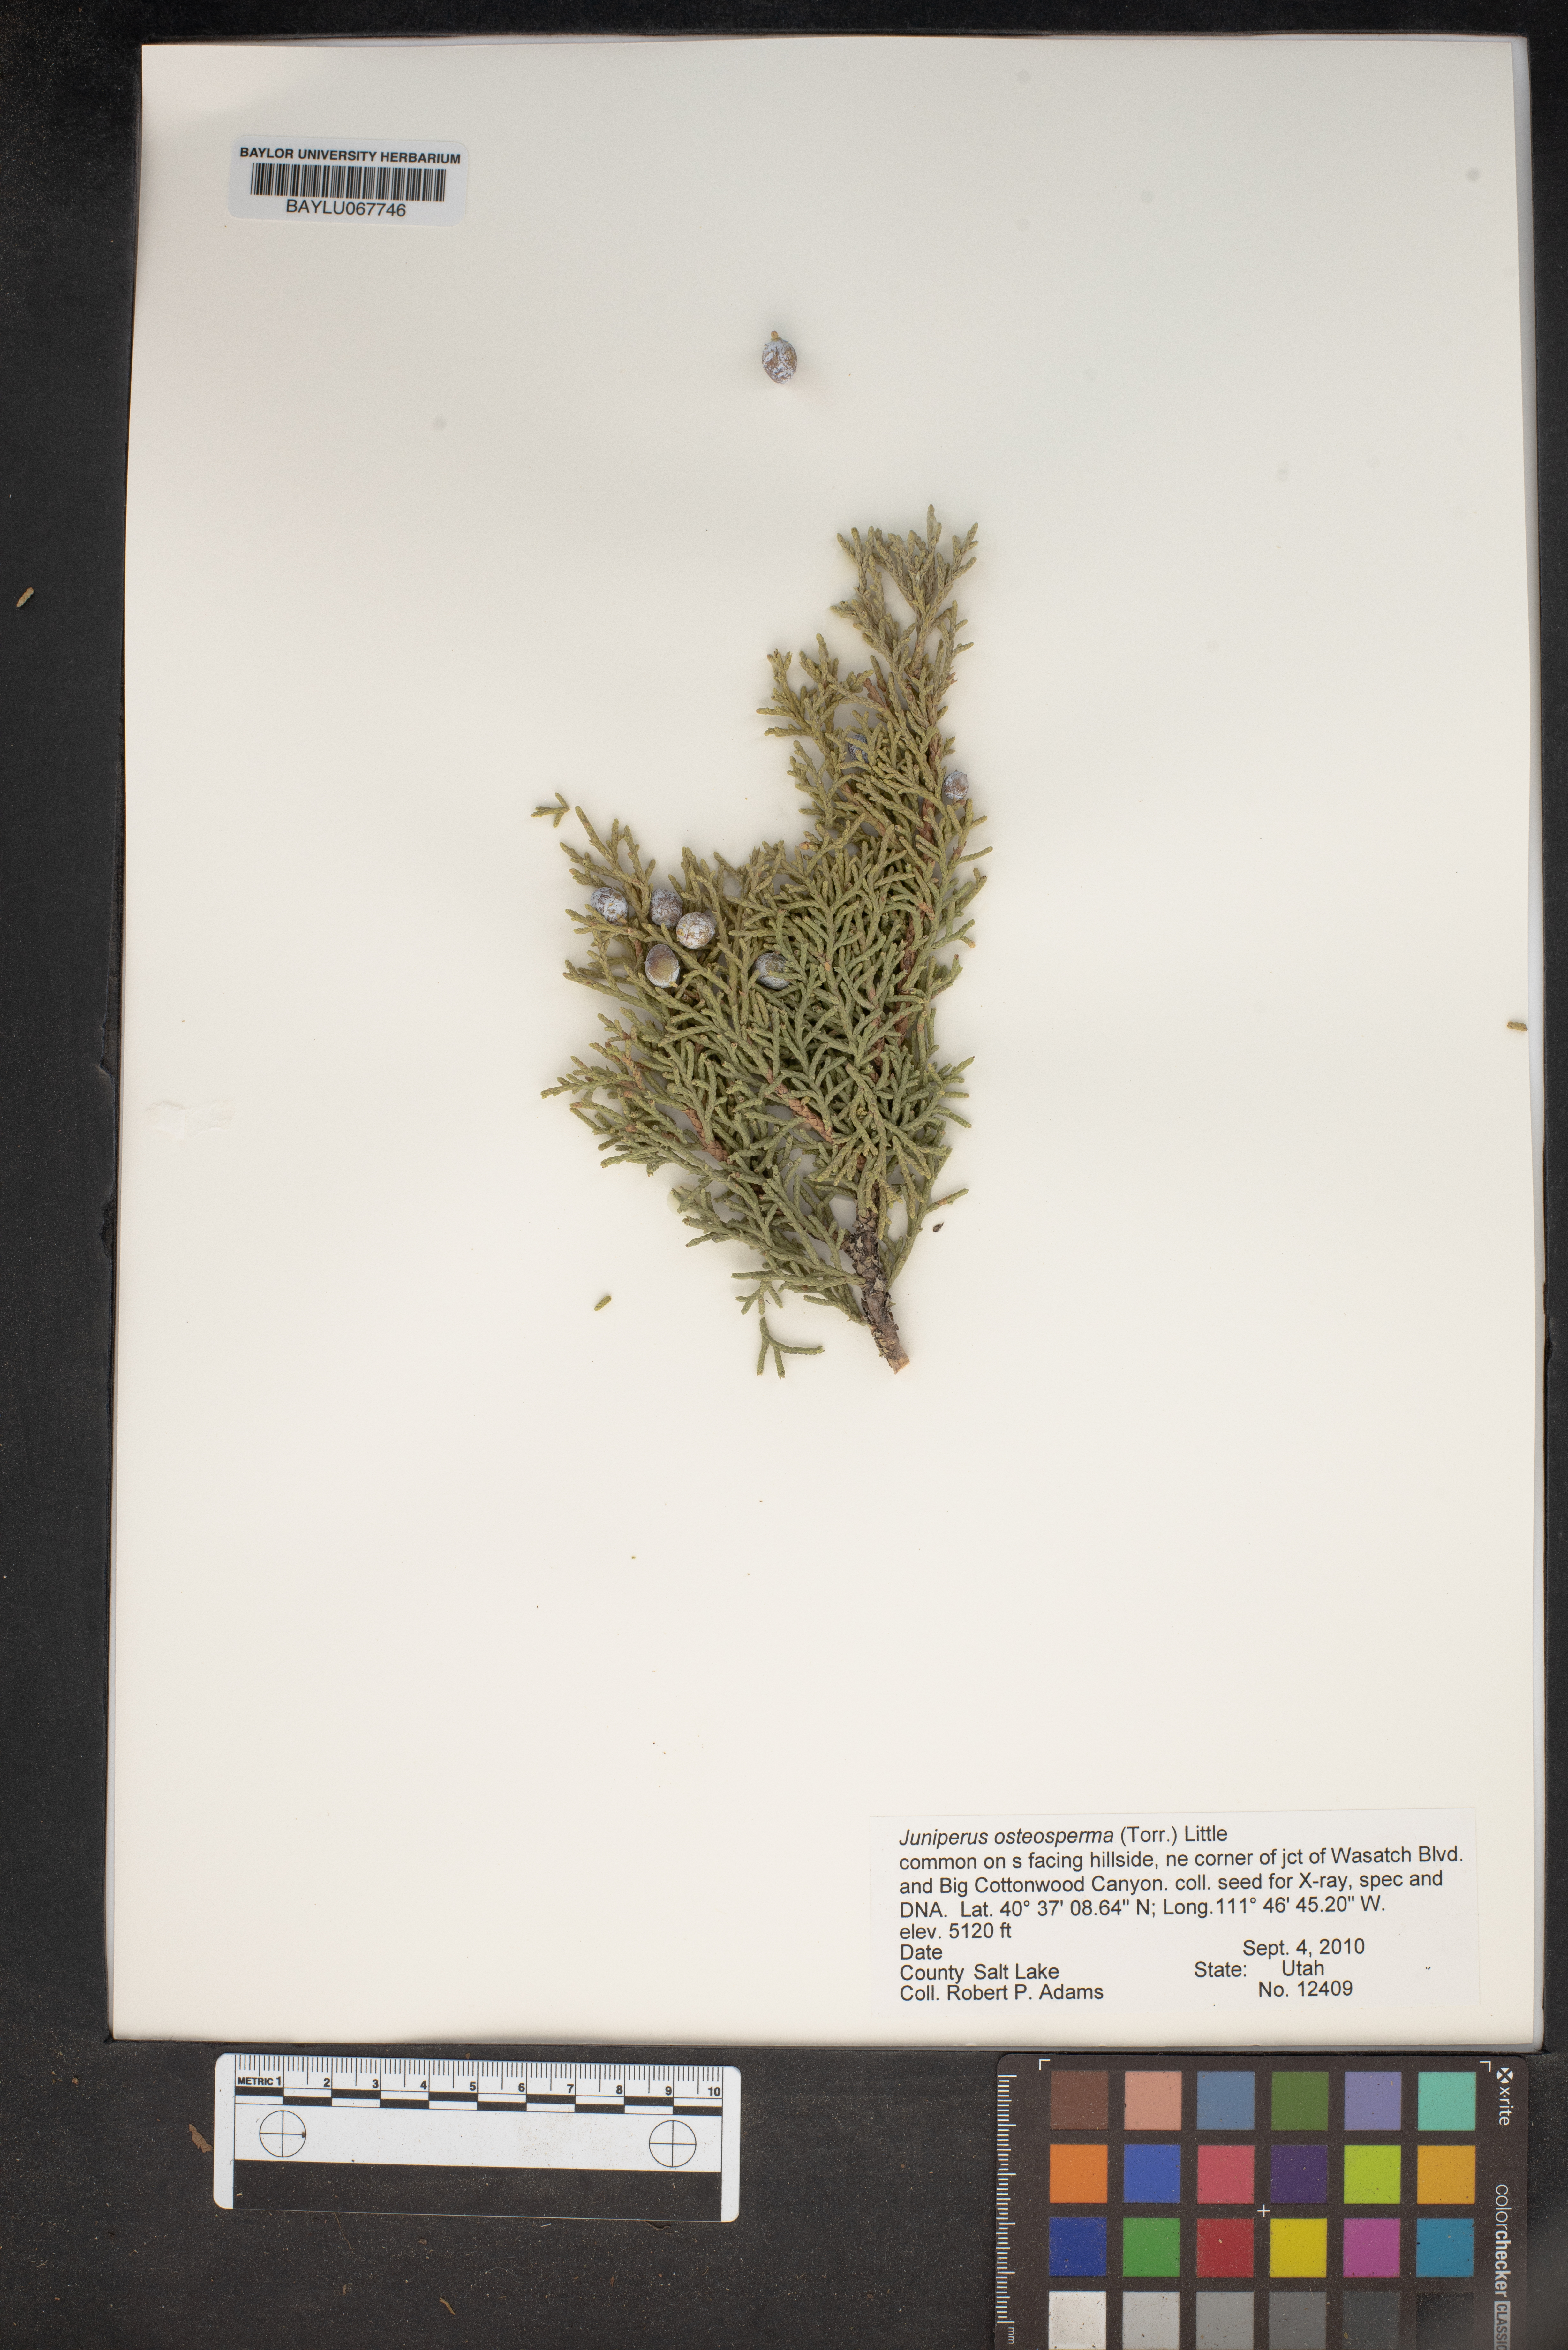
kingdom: Plantae
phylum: Tracheophyta
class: Pinopsida
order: Pinales
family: Cupressaceae
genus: Juniperus
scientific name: Juniperus osteosperma
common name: Utah juniper
